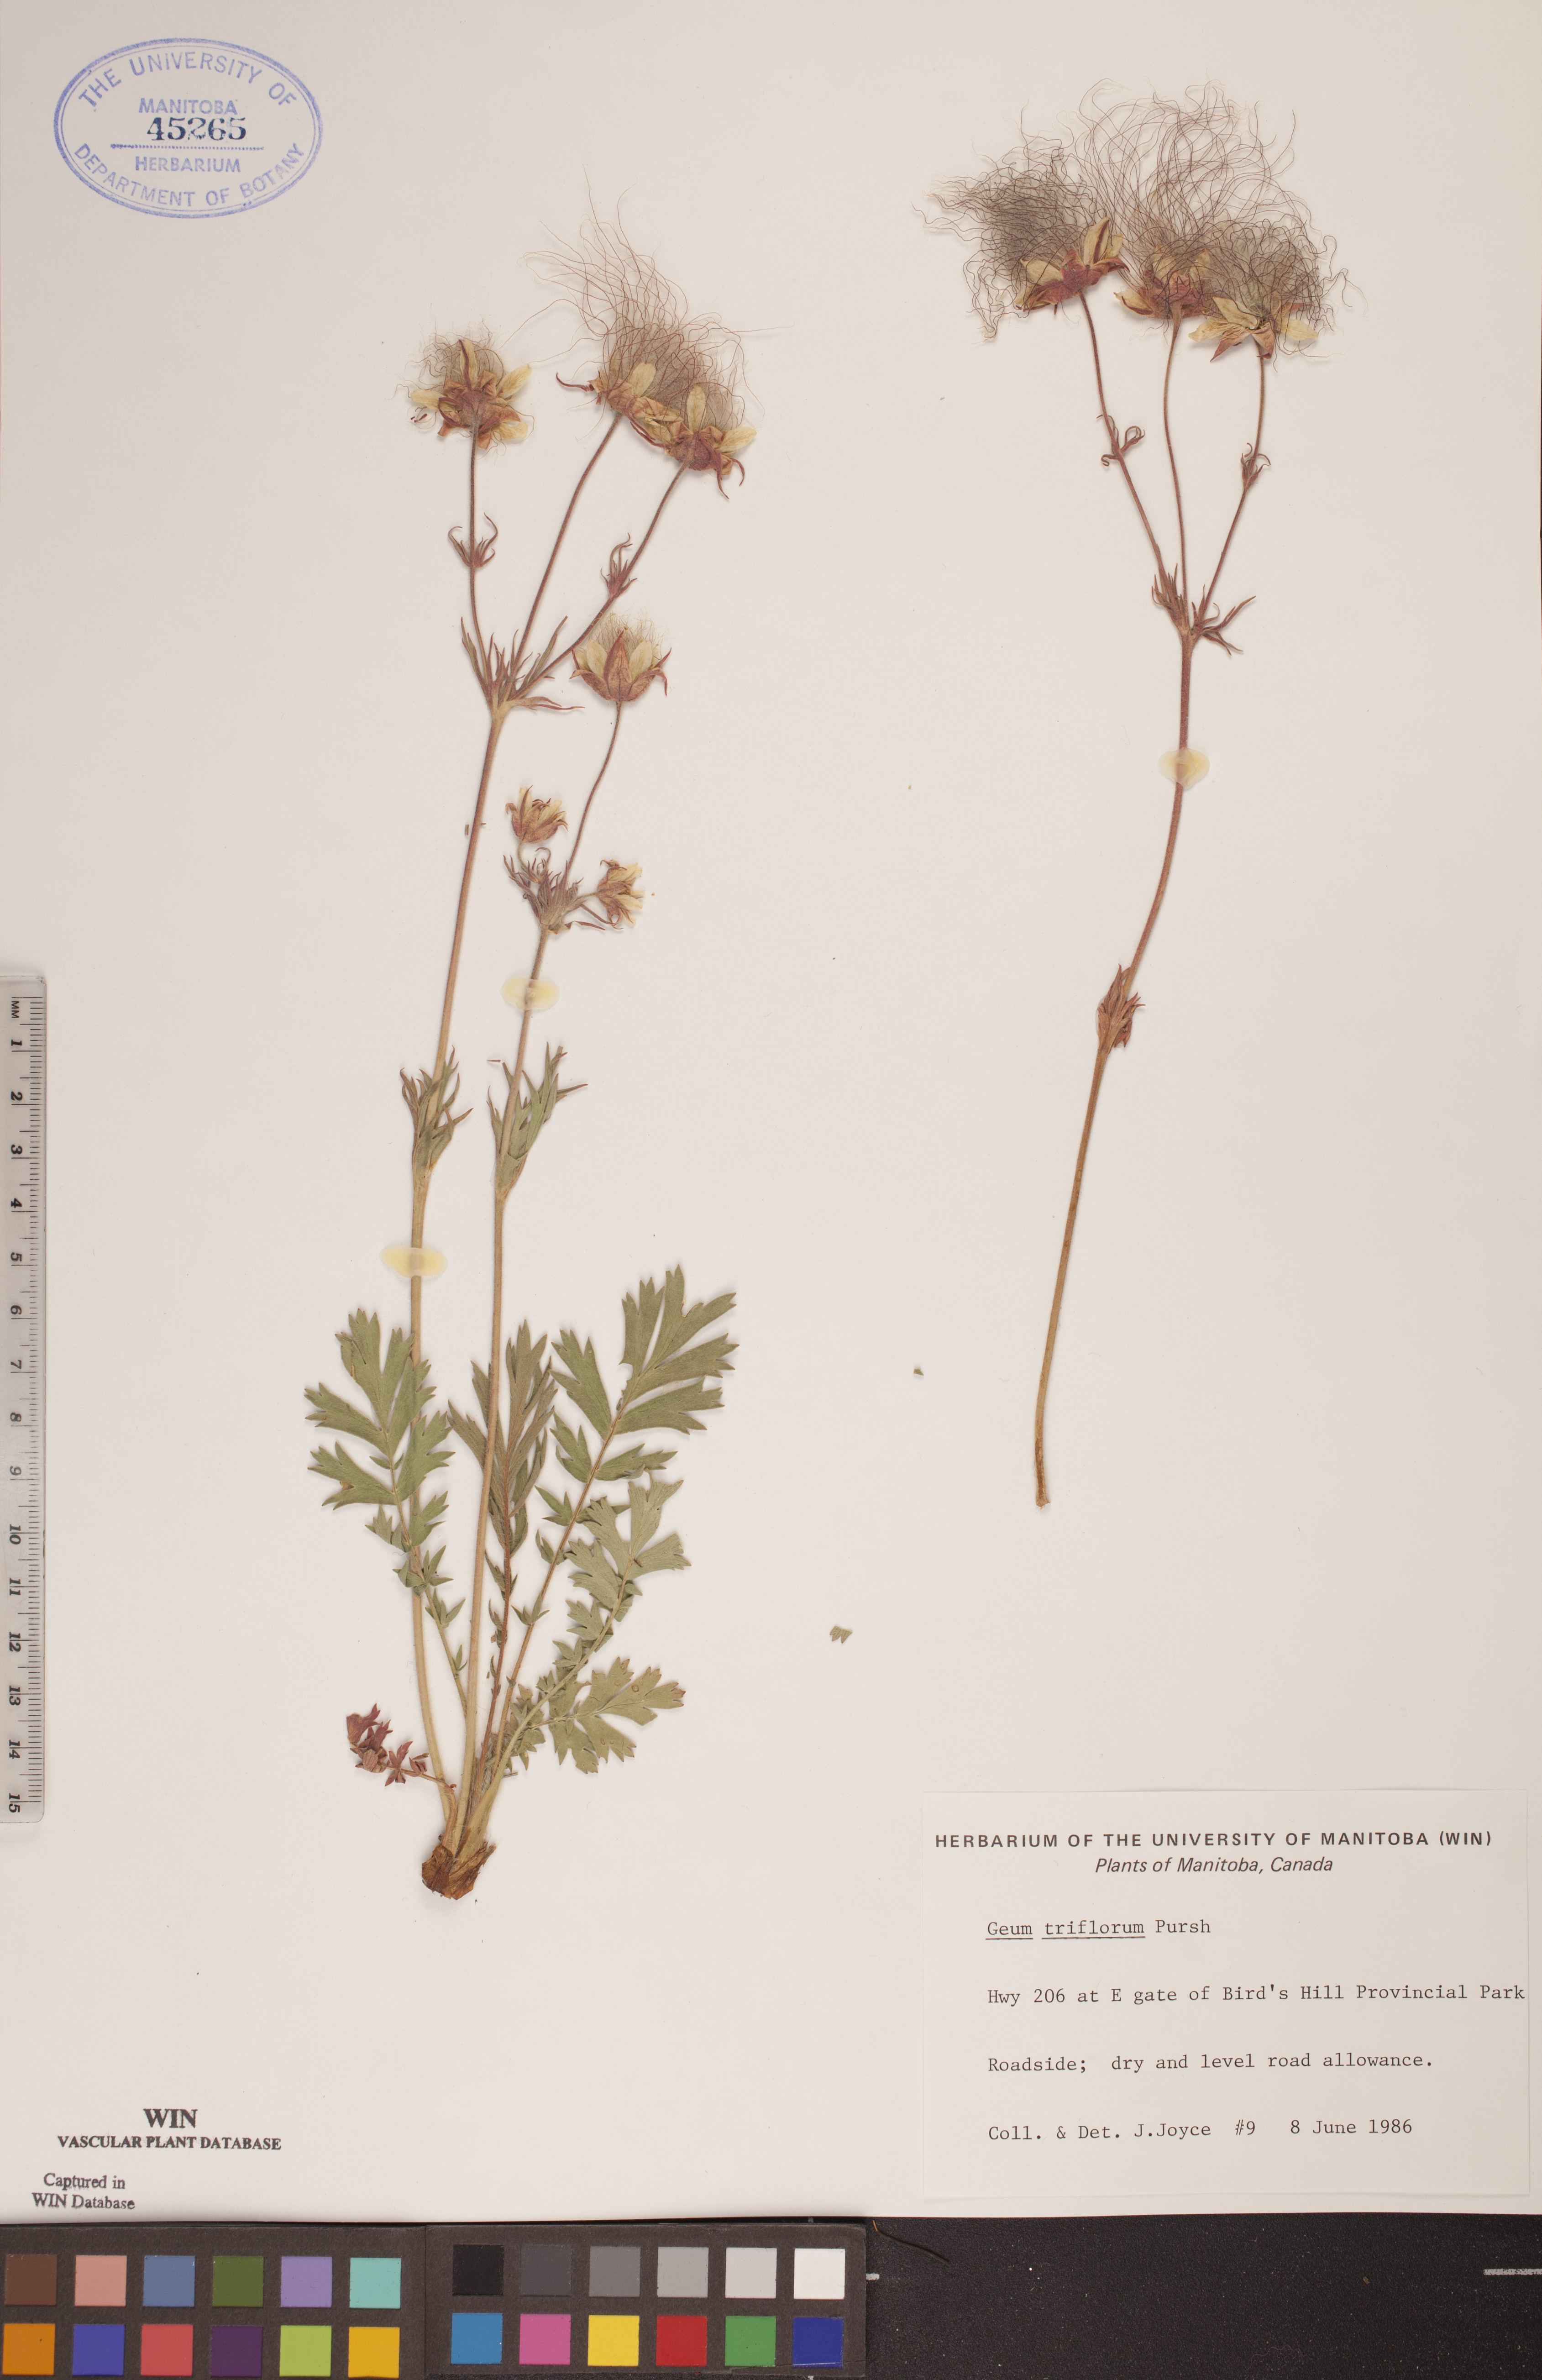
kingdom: Plantae
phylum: Tracheophyta
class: Magnoliopsida
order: Rosales
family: Rosaceae
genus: Geum
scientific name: Geum triflorum
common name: Old man's whiskers
